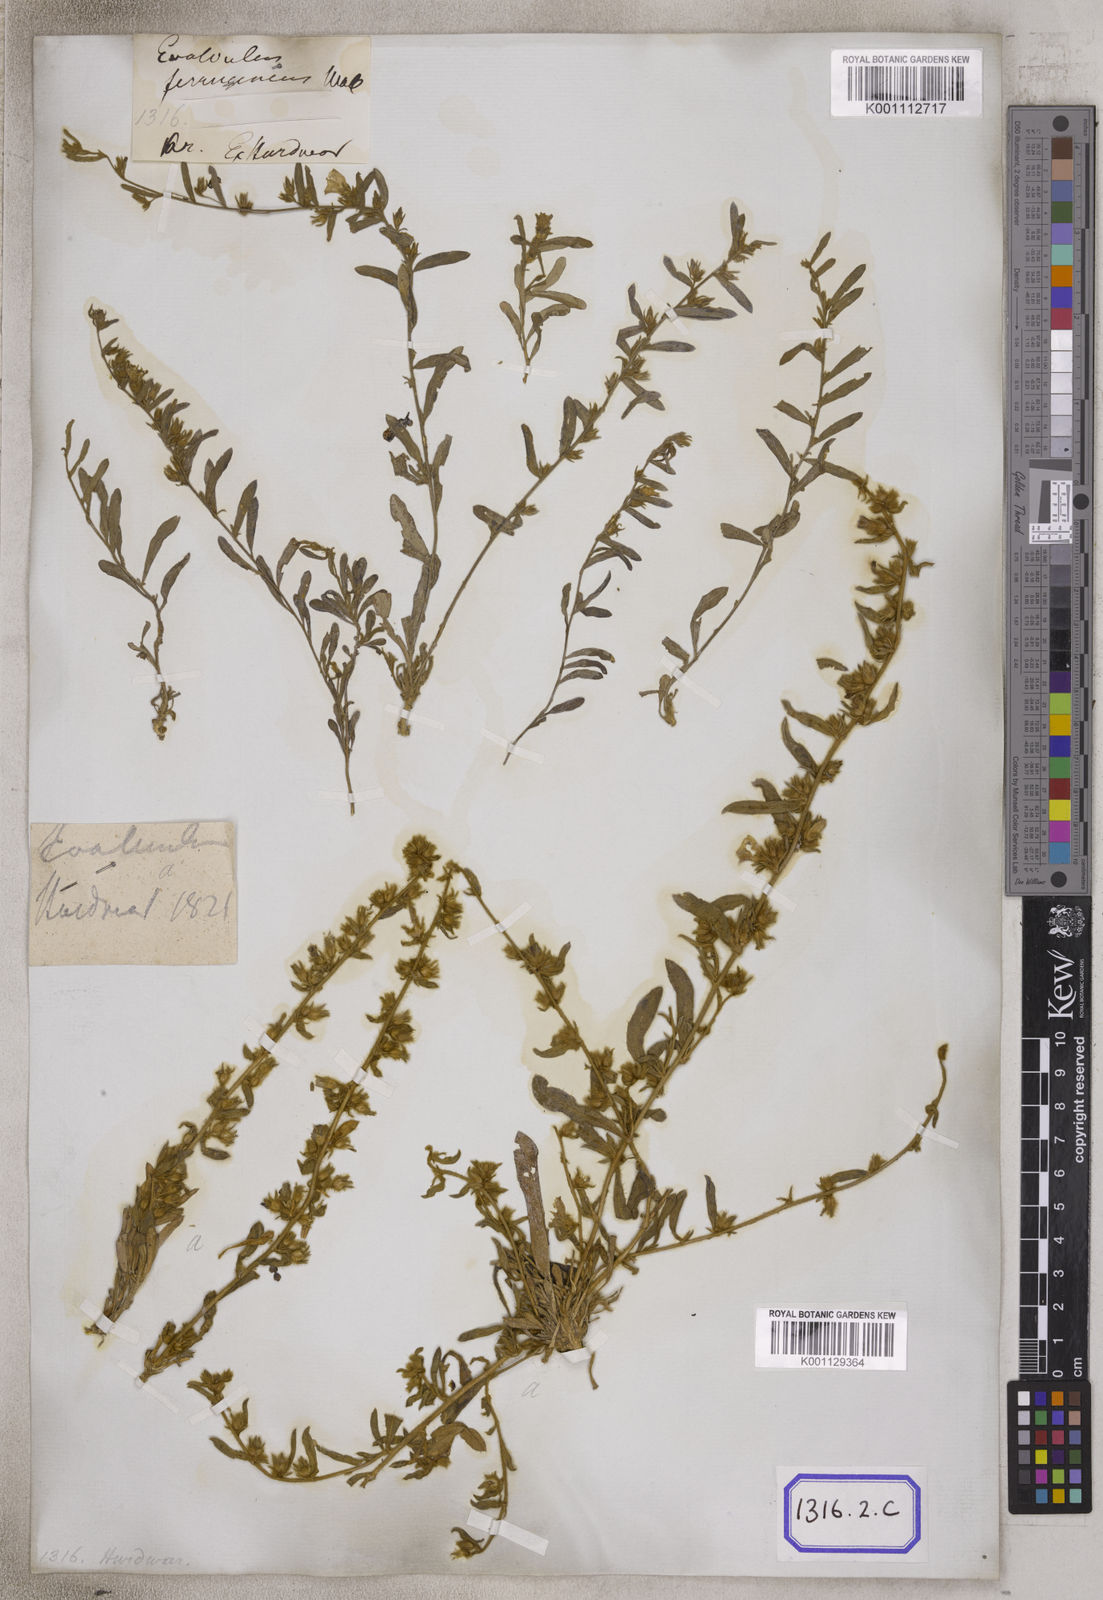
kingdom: Plantae
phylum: Tracheophyta
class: Magnoliopsida
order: Solanales
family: Convolvulaceae
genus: Evolvulus
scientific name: Evolvulus
